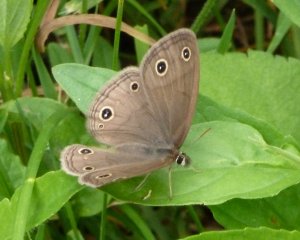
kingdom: Animalia
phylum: Arthropoda
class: Insecta
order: Lepidoptera
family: Nymphalidae
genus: Euptychia
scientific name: Euptychia cymela
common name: Little Wood Satyr
